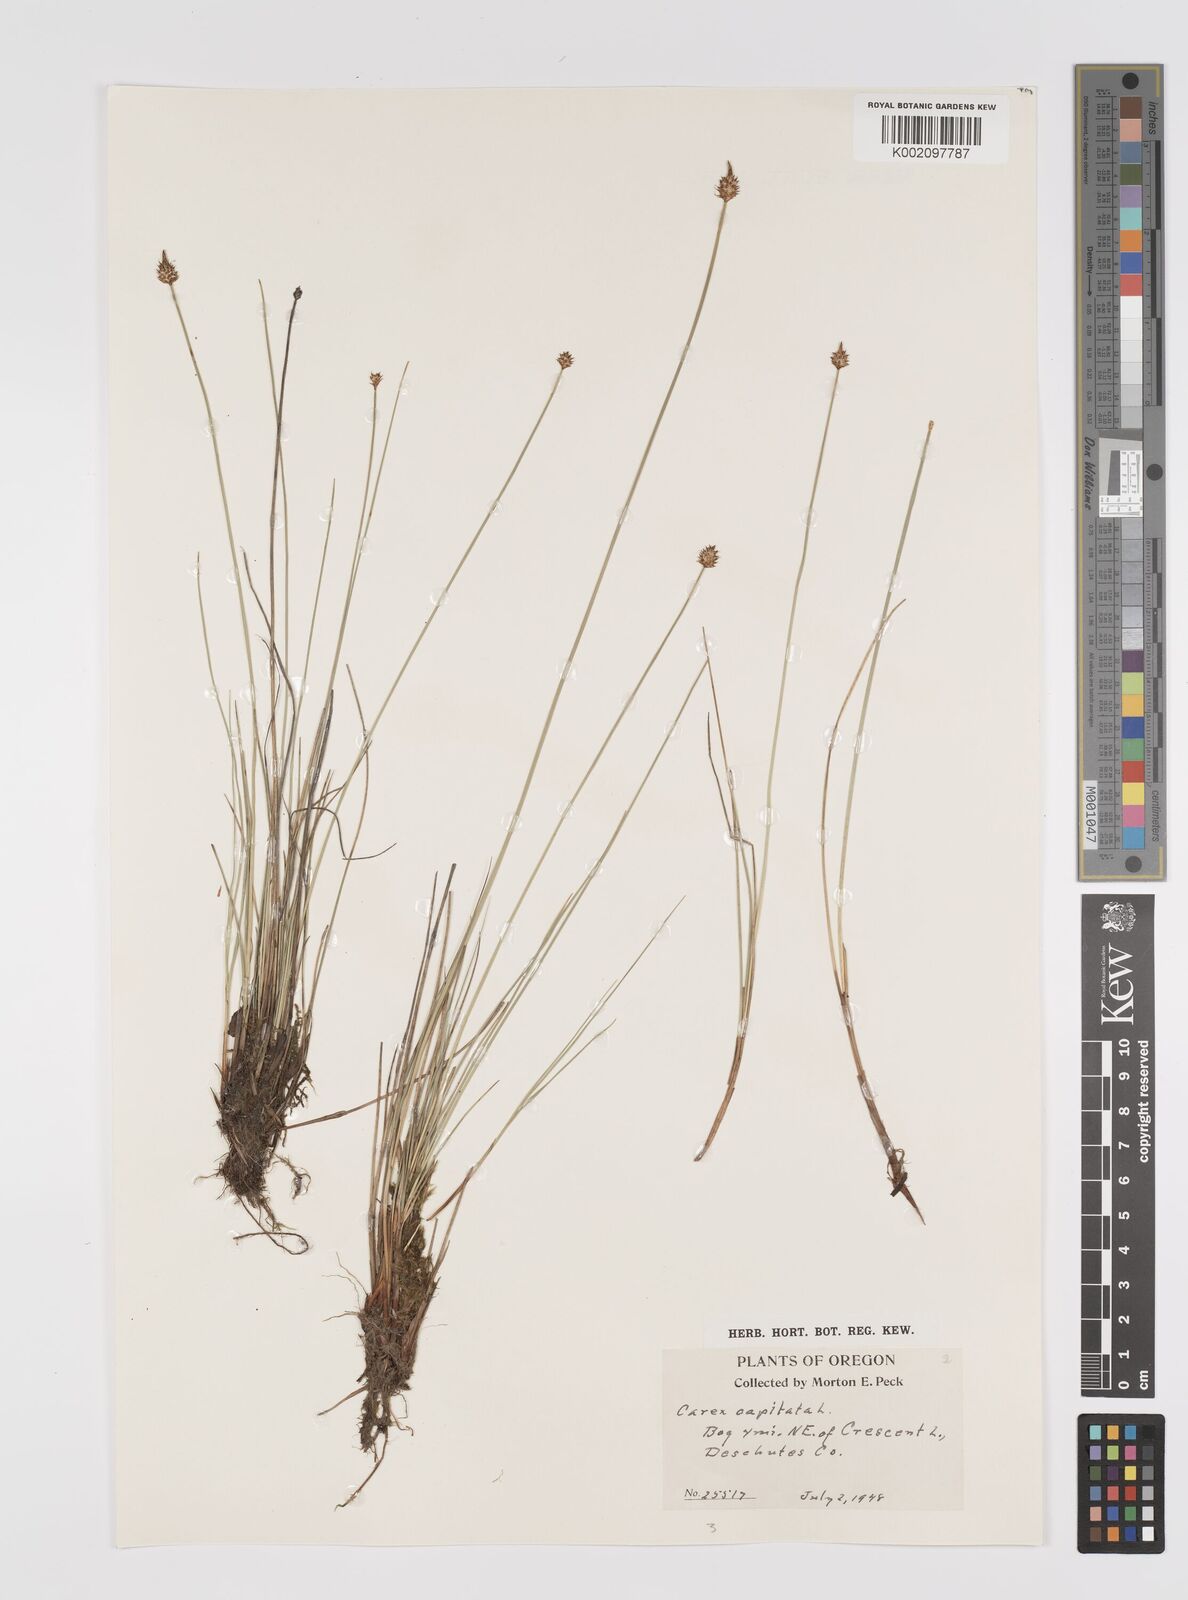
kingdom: Plantae
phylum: Tracheophyta
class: Liliopsida
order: Poales
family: Cyperaceae
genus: Carex
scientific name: Carex capitata
